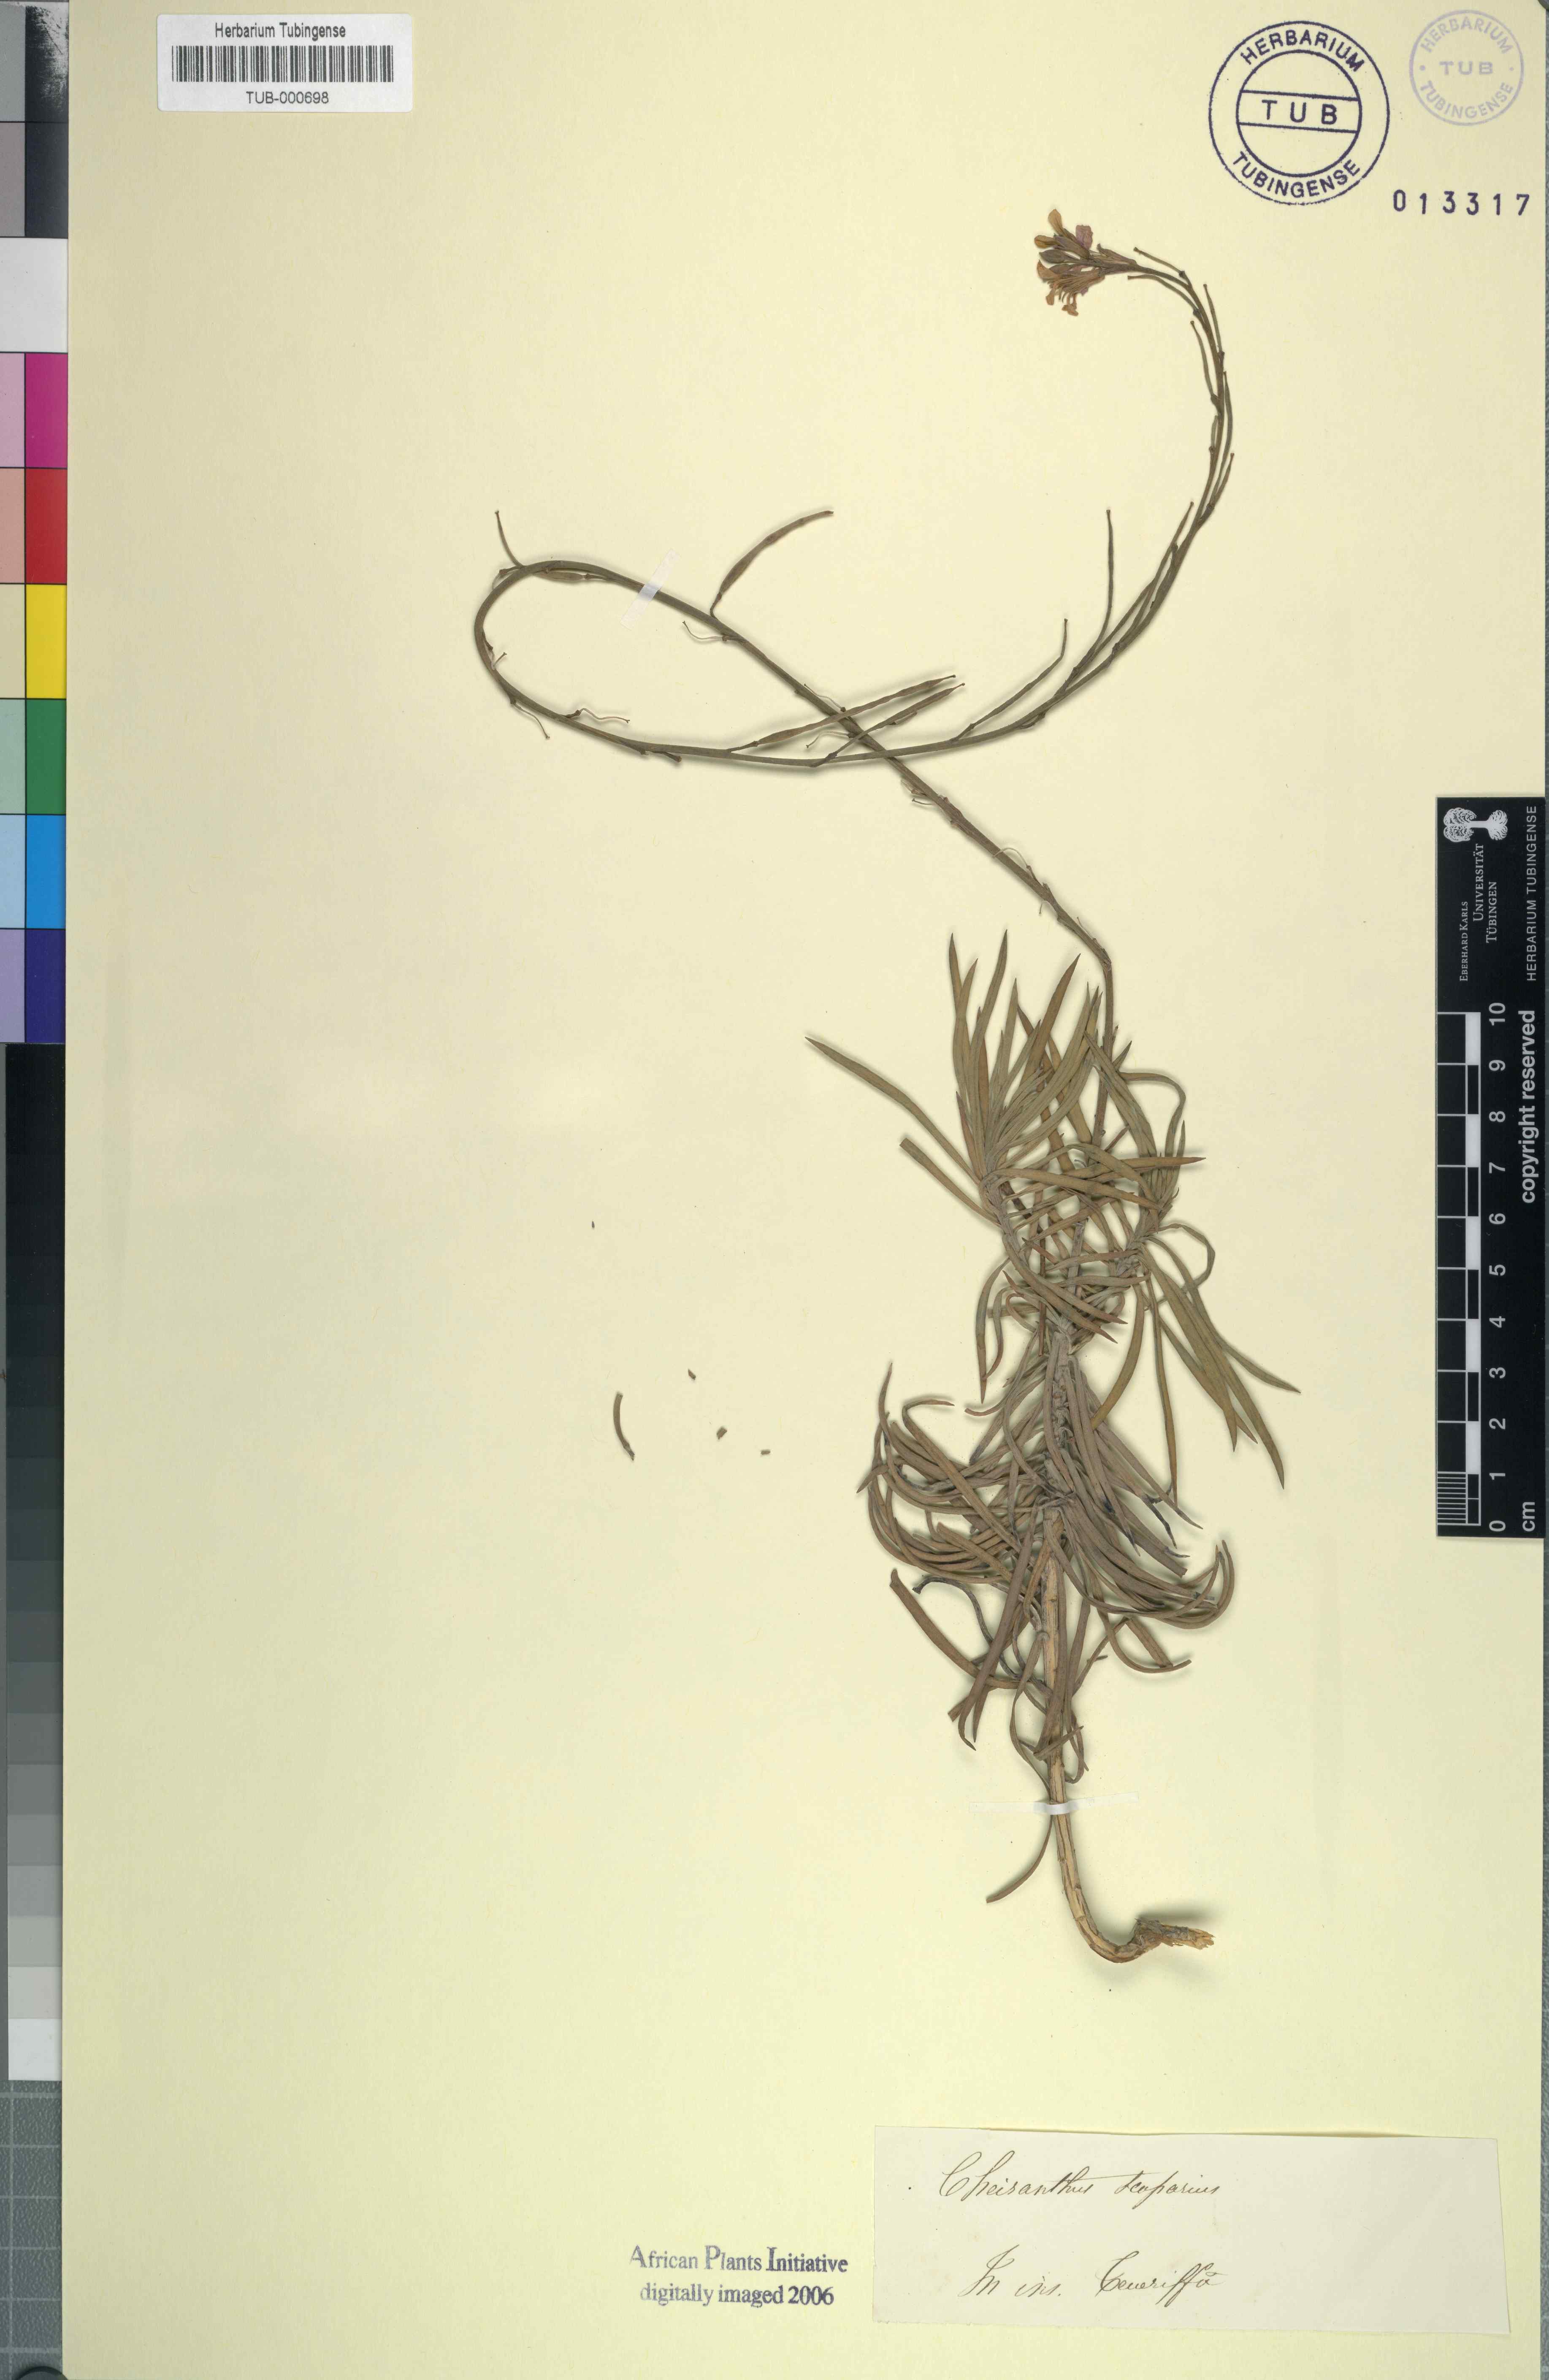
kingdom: Plantae
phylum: Tracheophyta
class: Magnoliopsida
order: Brassicales
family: Brassicaceae
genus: Erysimum
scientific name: Erysimum scoparium
